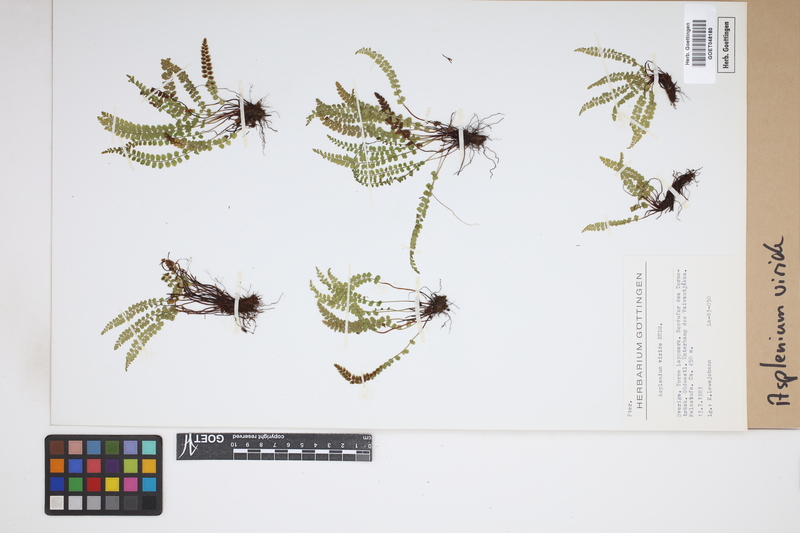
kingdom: Plantae
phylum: Tracheophyta
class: Polypodiopsida
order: Polypodiales
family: Aspleniaceae
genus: Asplenium
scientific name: Asplenium viride
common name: Green spleenwort
